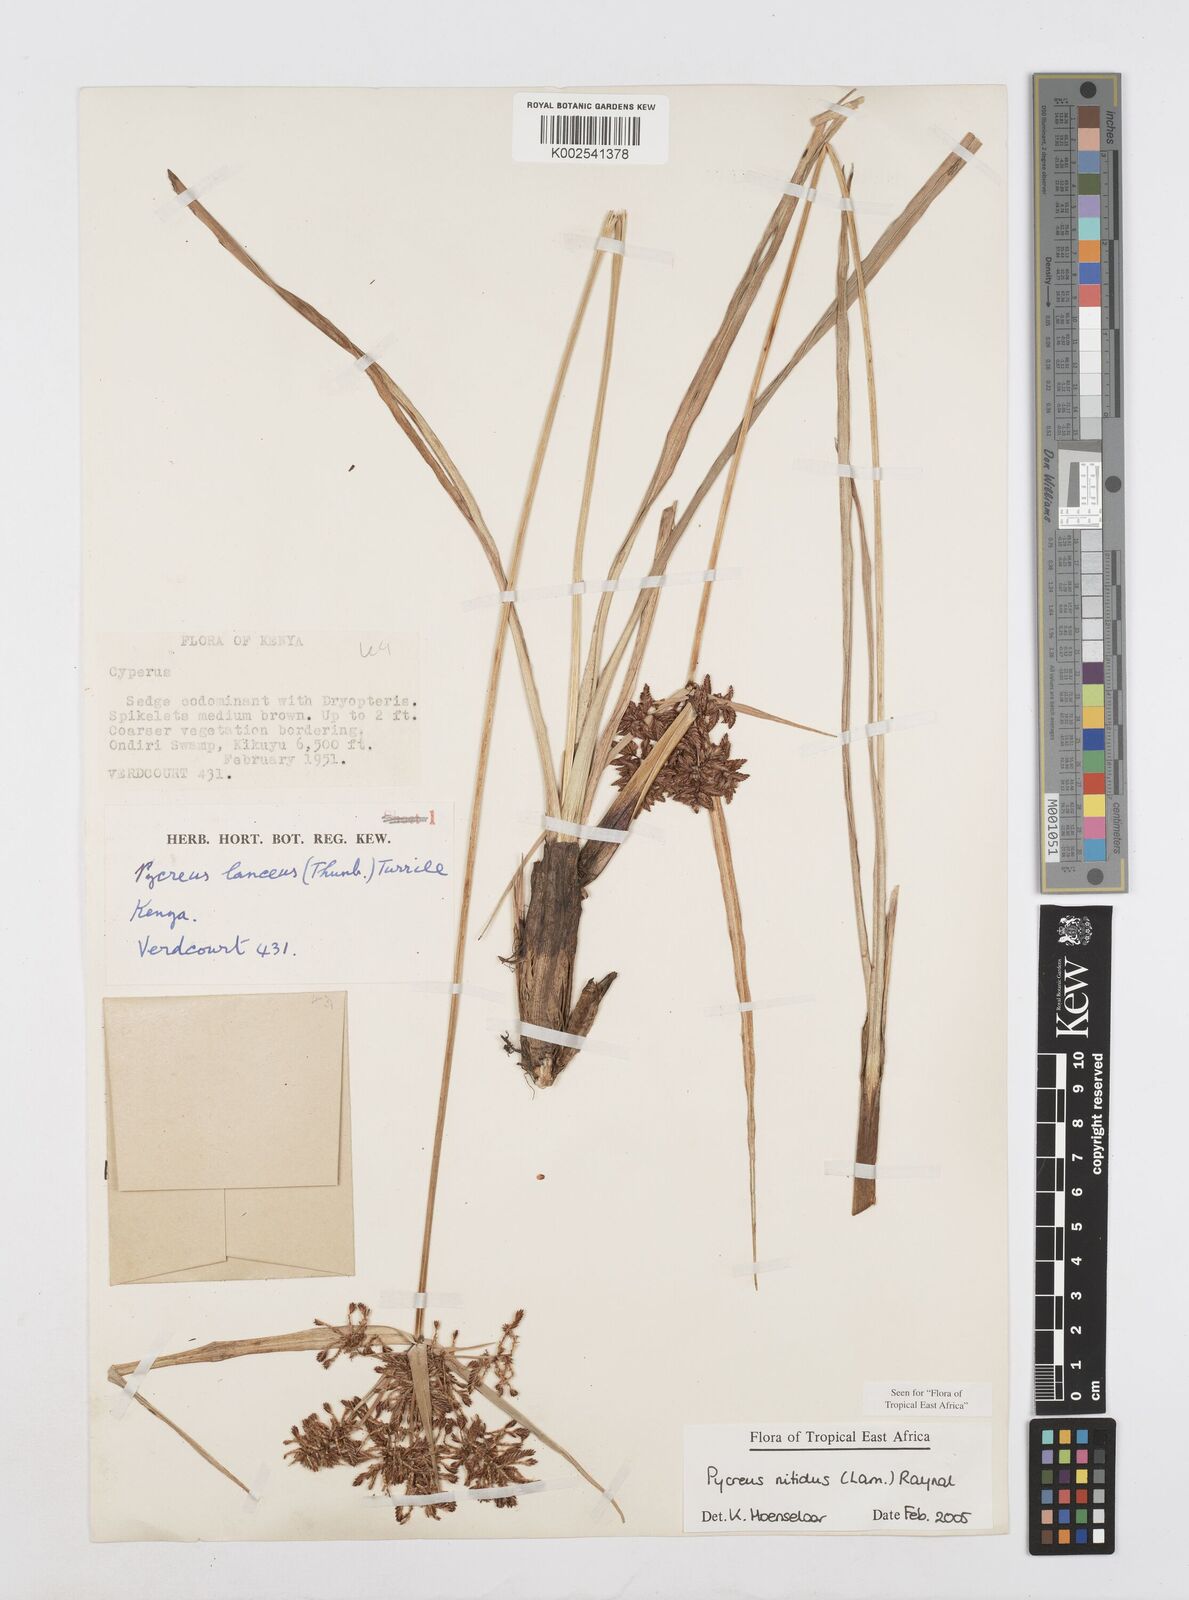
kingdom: Plantae
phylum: Tracheophyta
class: Liliopsida
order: Poales
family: Cyperaceae
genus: Cyperus
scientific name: Cyperus nitidus
